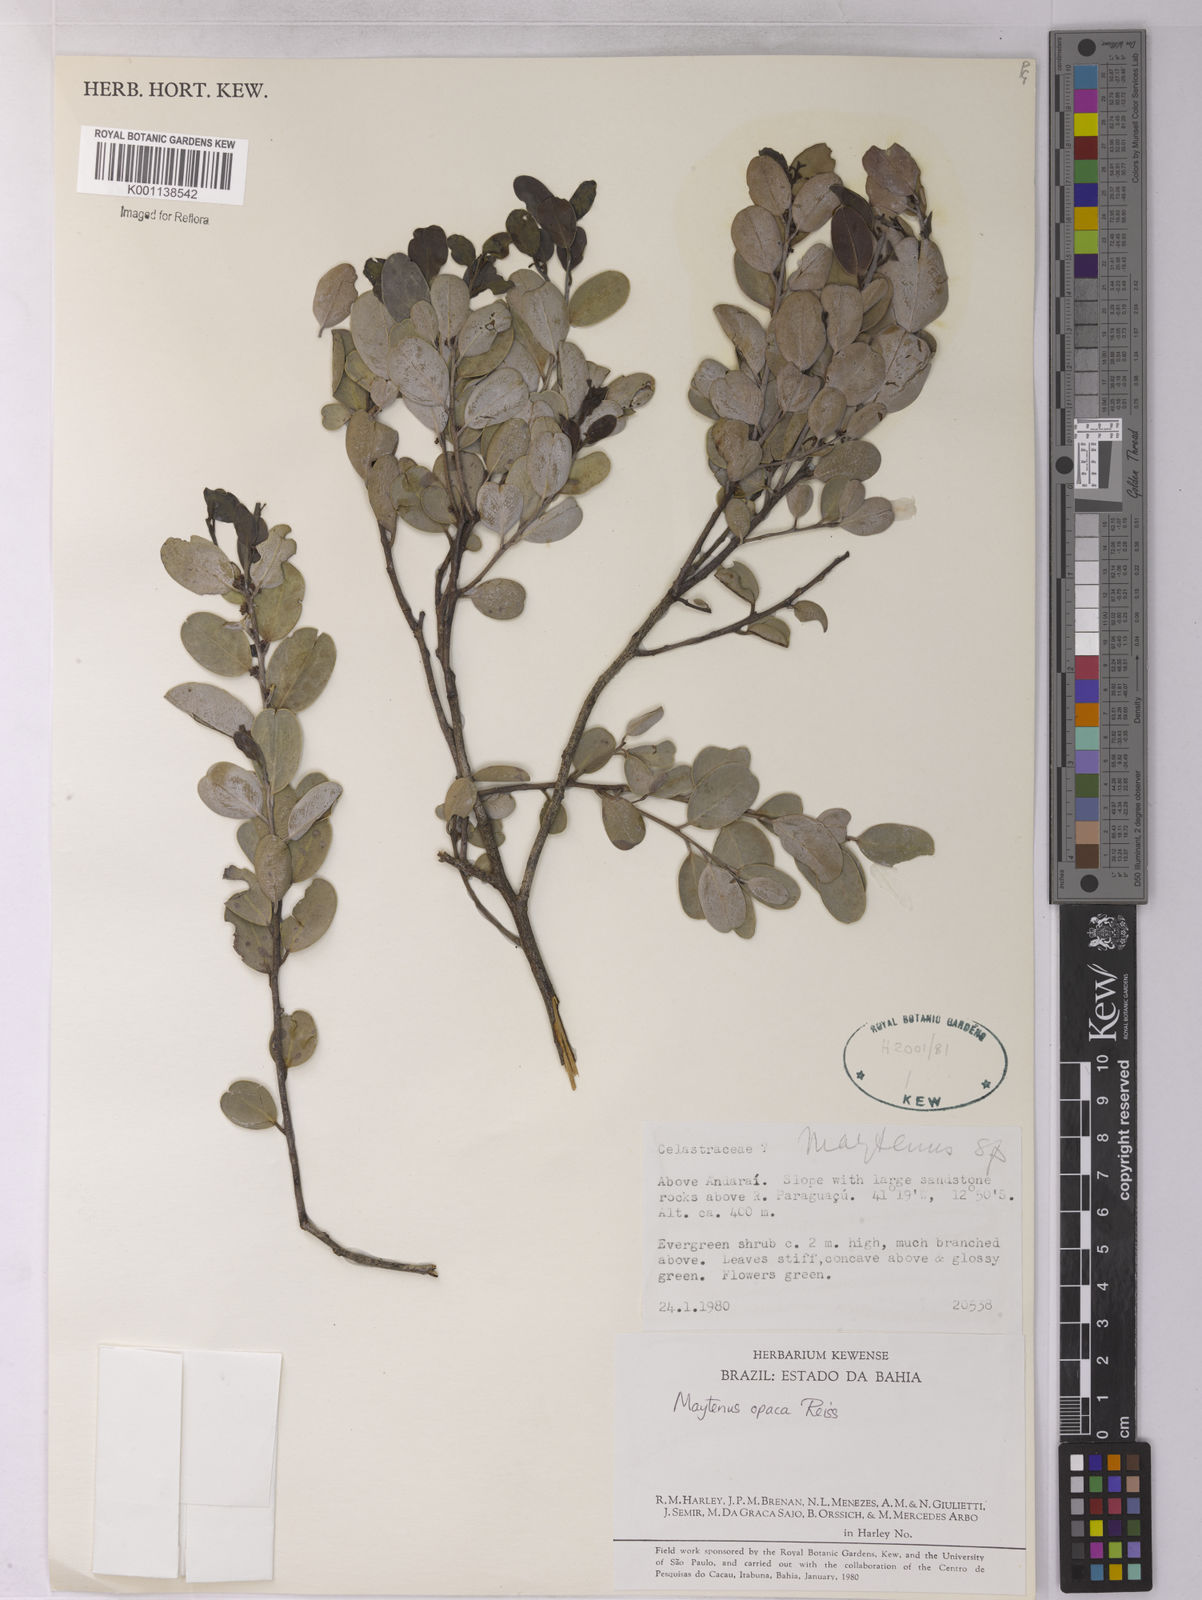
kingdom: Plantae
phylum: Tracheophyta
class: Magnoliopsida
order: Celastrales
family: Celastraceae
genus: Monteverdia
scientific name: Monteverdia opaca
